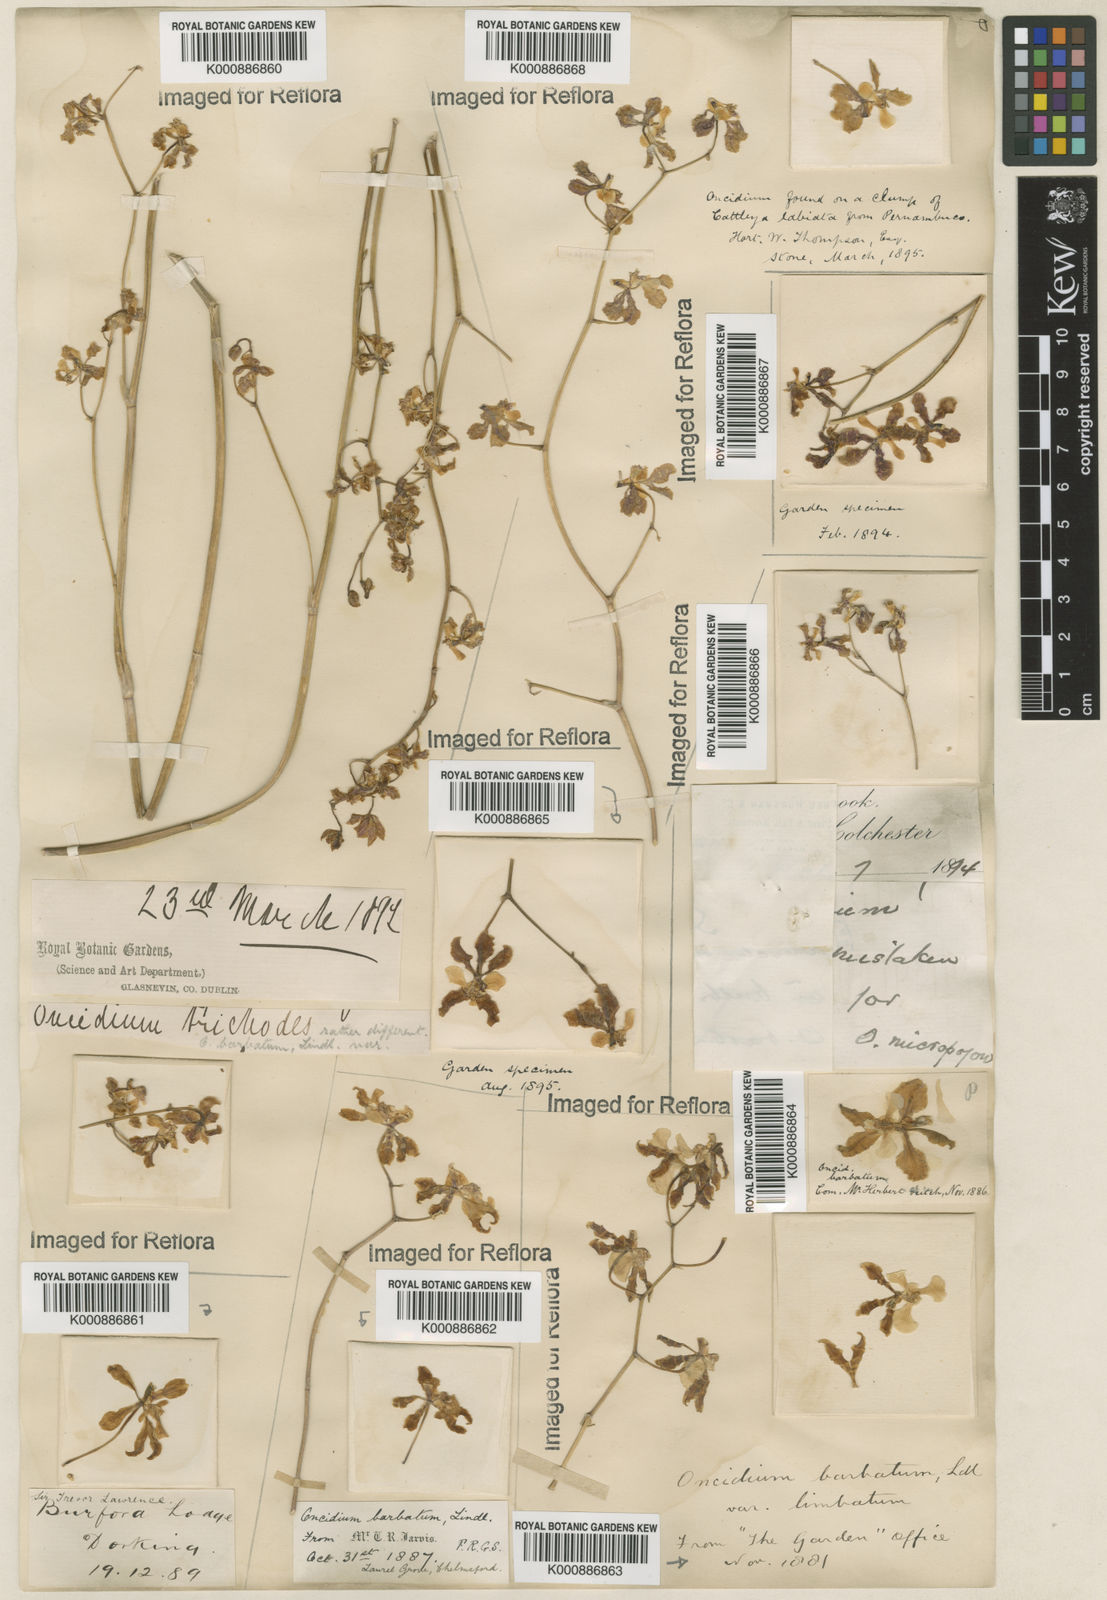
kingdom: Plantae
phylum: Tracheophyta
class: Liliopsida
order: Asparagales
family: Orchidaceae
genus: Gomesa
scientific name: Gomesa barbata
